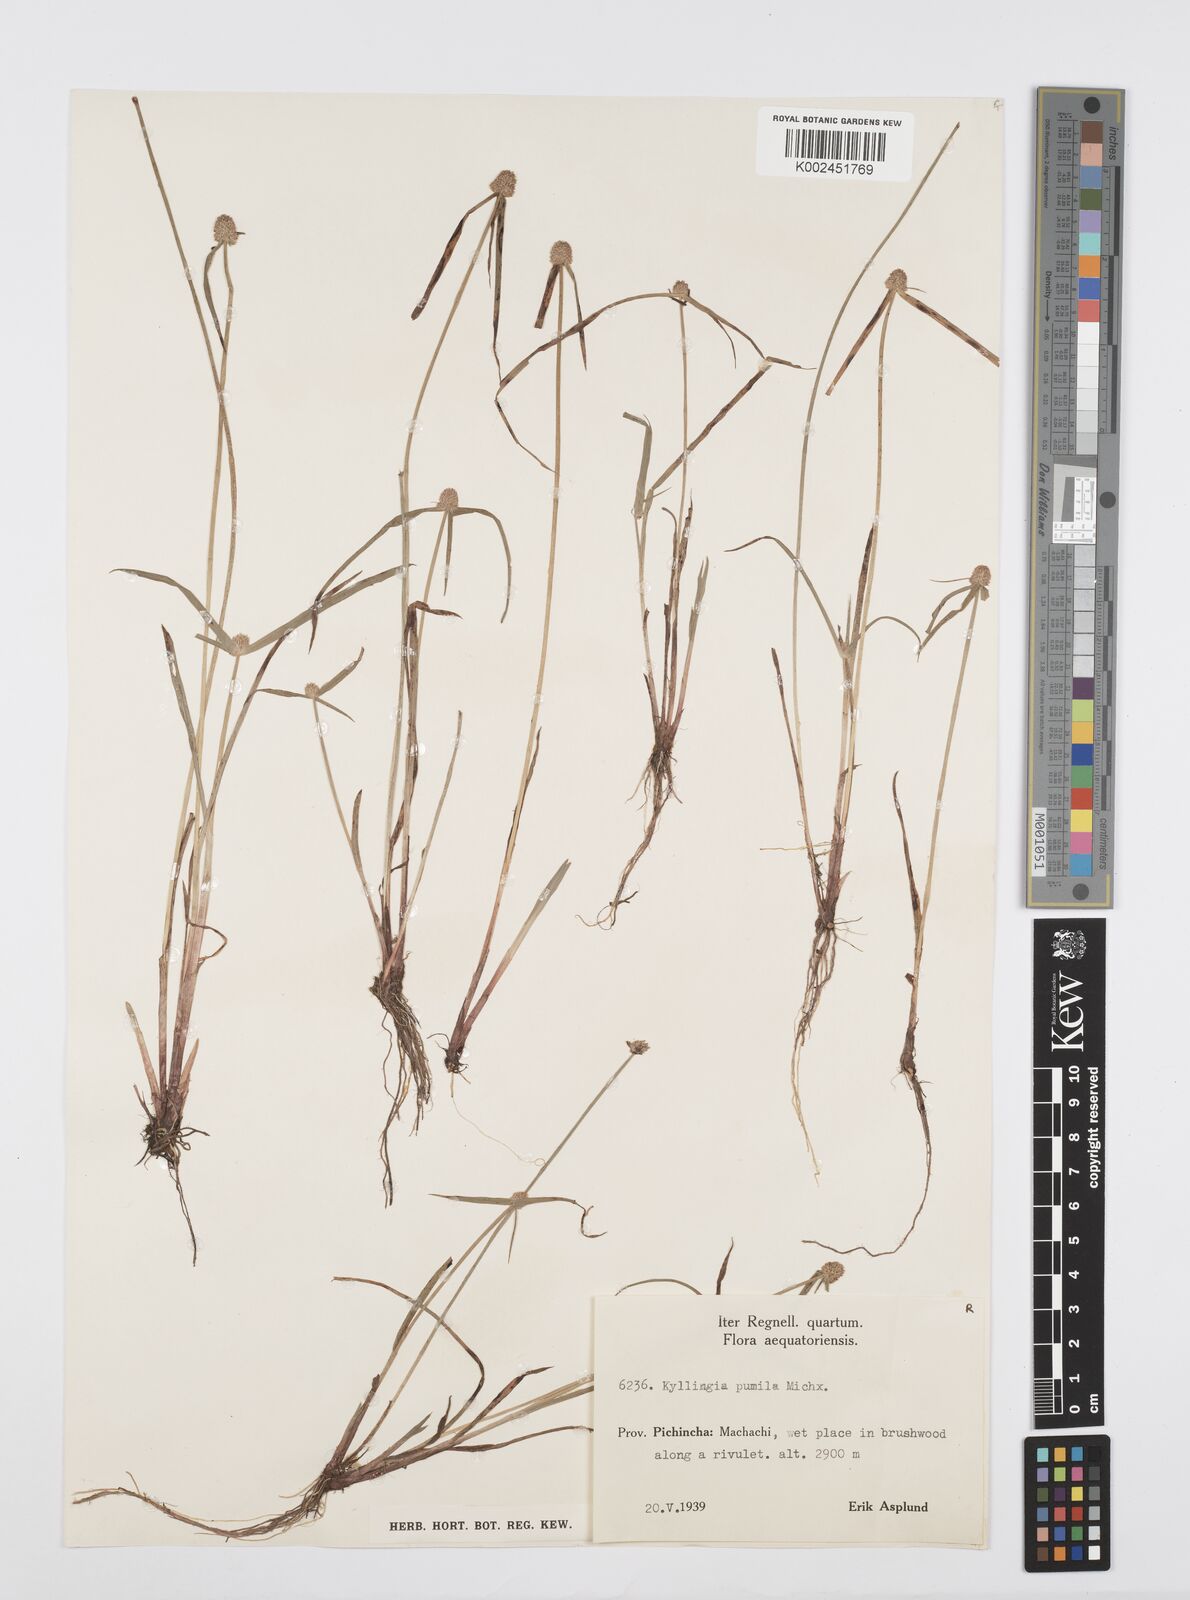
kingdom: Plantae
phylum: Tracheophyta
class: Liliopsida
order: Poales
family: Cyperaceae
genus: Cyperus
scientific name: Cyperus
